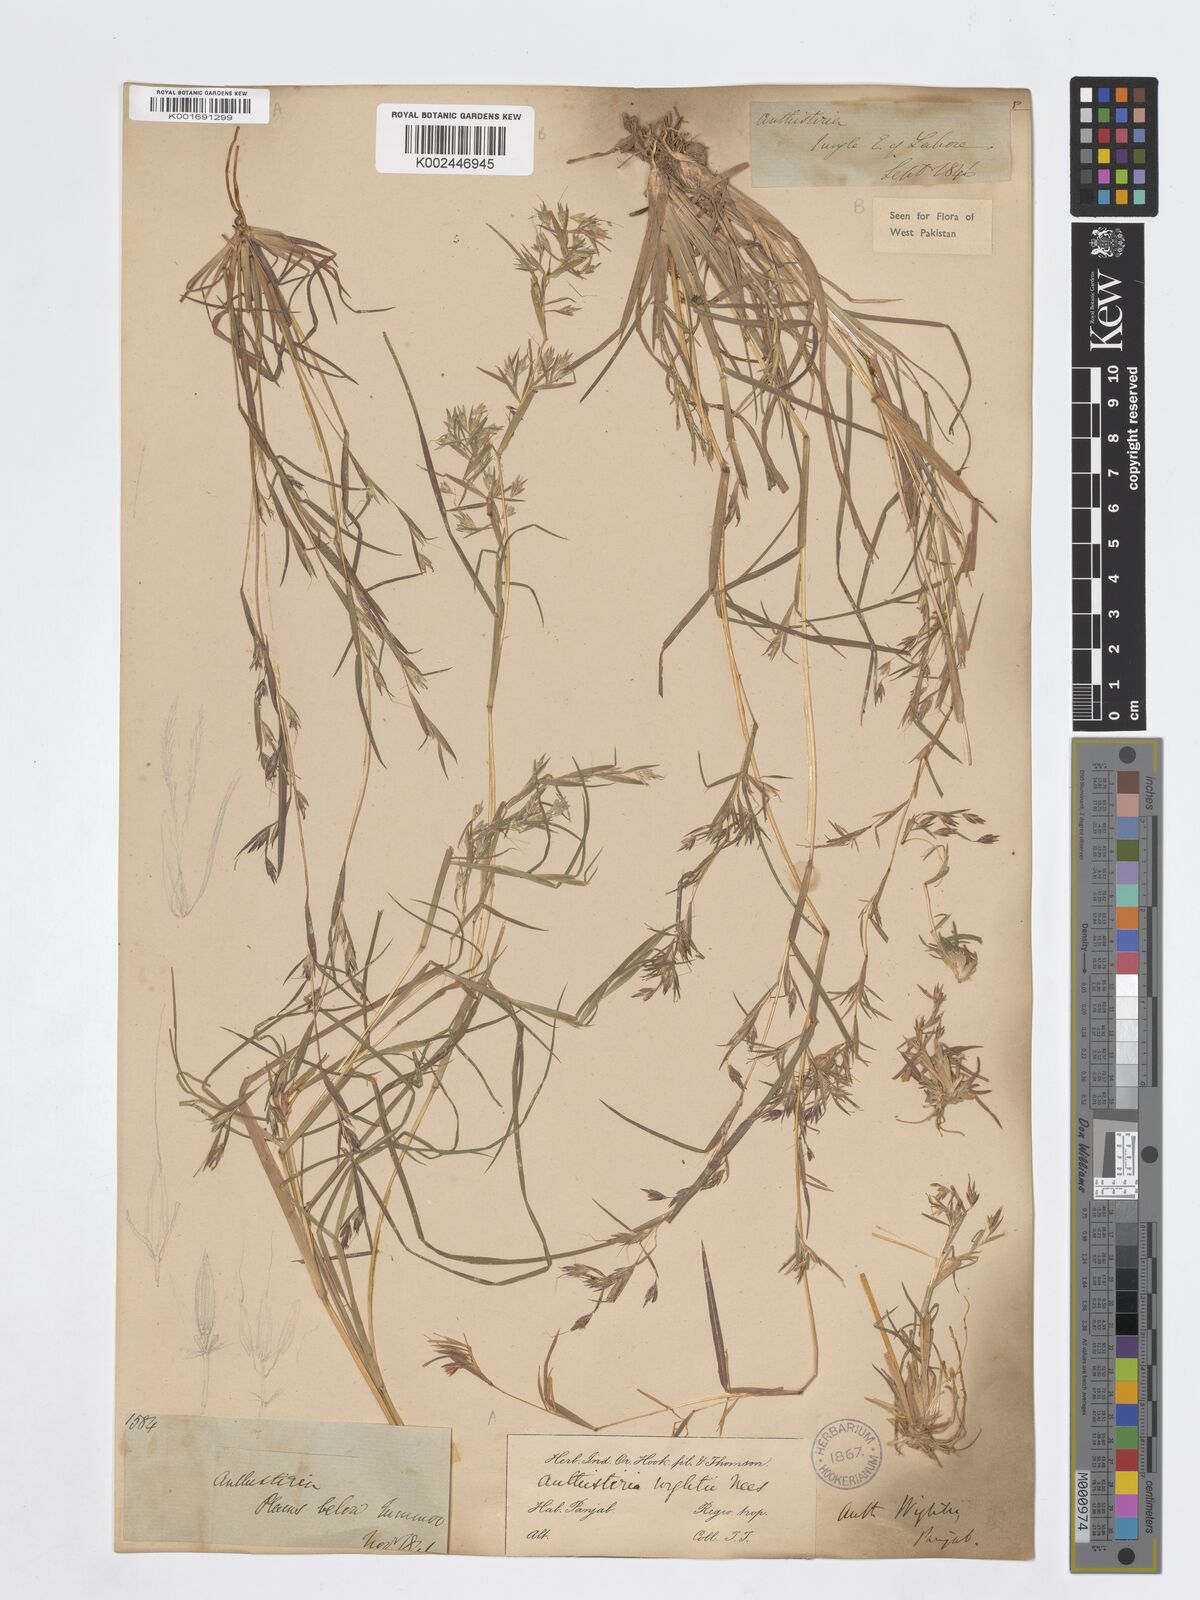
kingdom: Plantae
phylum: Tracheophyta
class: Liliopsida
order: Poales
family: Poaceae
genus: Iseilema
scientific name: Iseilema prostratum
